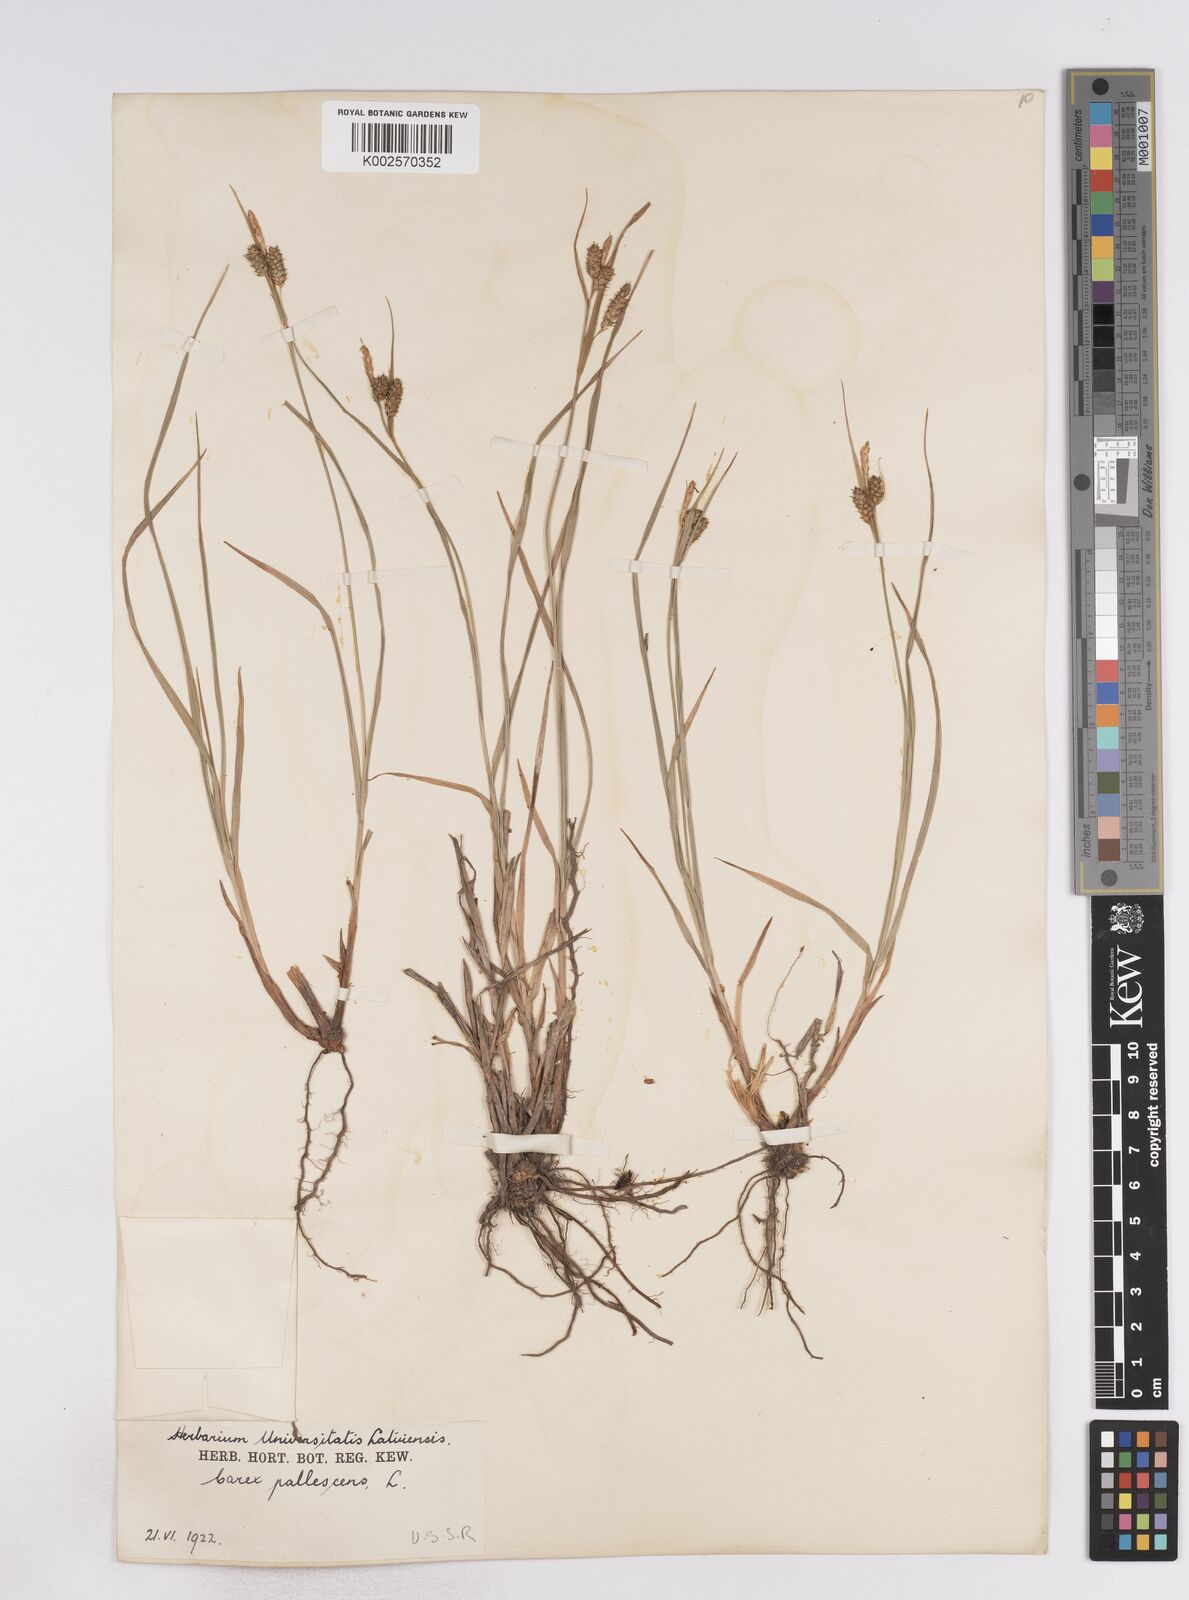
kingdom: Plantae
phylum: Tracheophyta
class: Liliopsida
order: Poales
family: Cyperaceae
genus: Carex
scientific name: Carex pallescens
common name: Pale sedge
